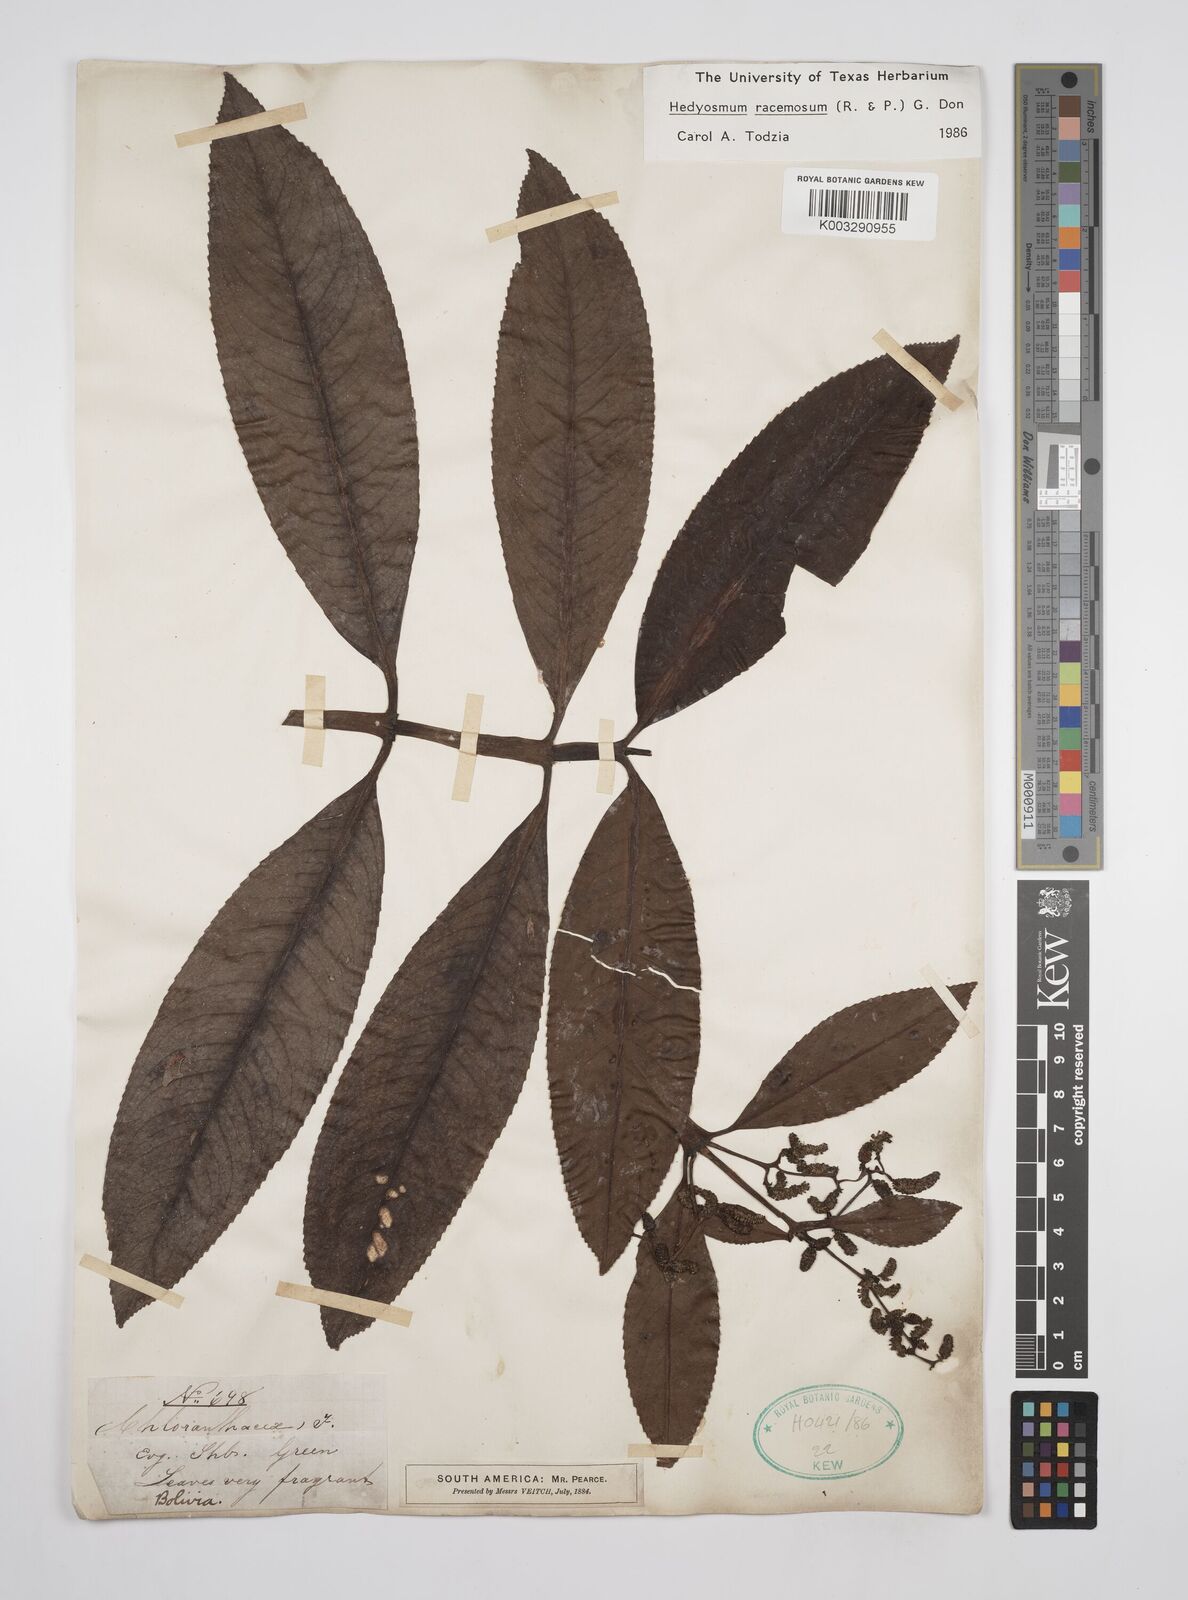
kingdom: Plantae
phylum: Tracheophyta
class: Magnoliopsida
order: Chloranthales
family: Chloranthaceae
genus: Hedyosmum
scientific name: Hedyosmum racemosum
